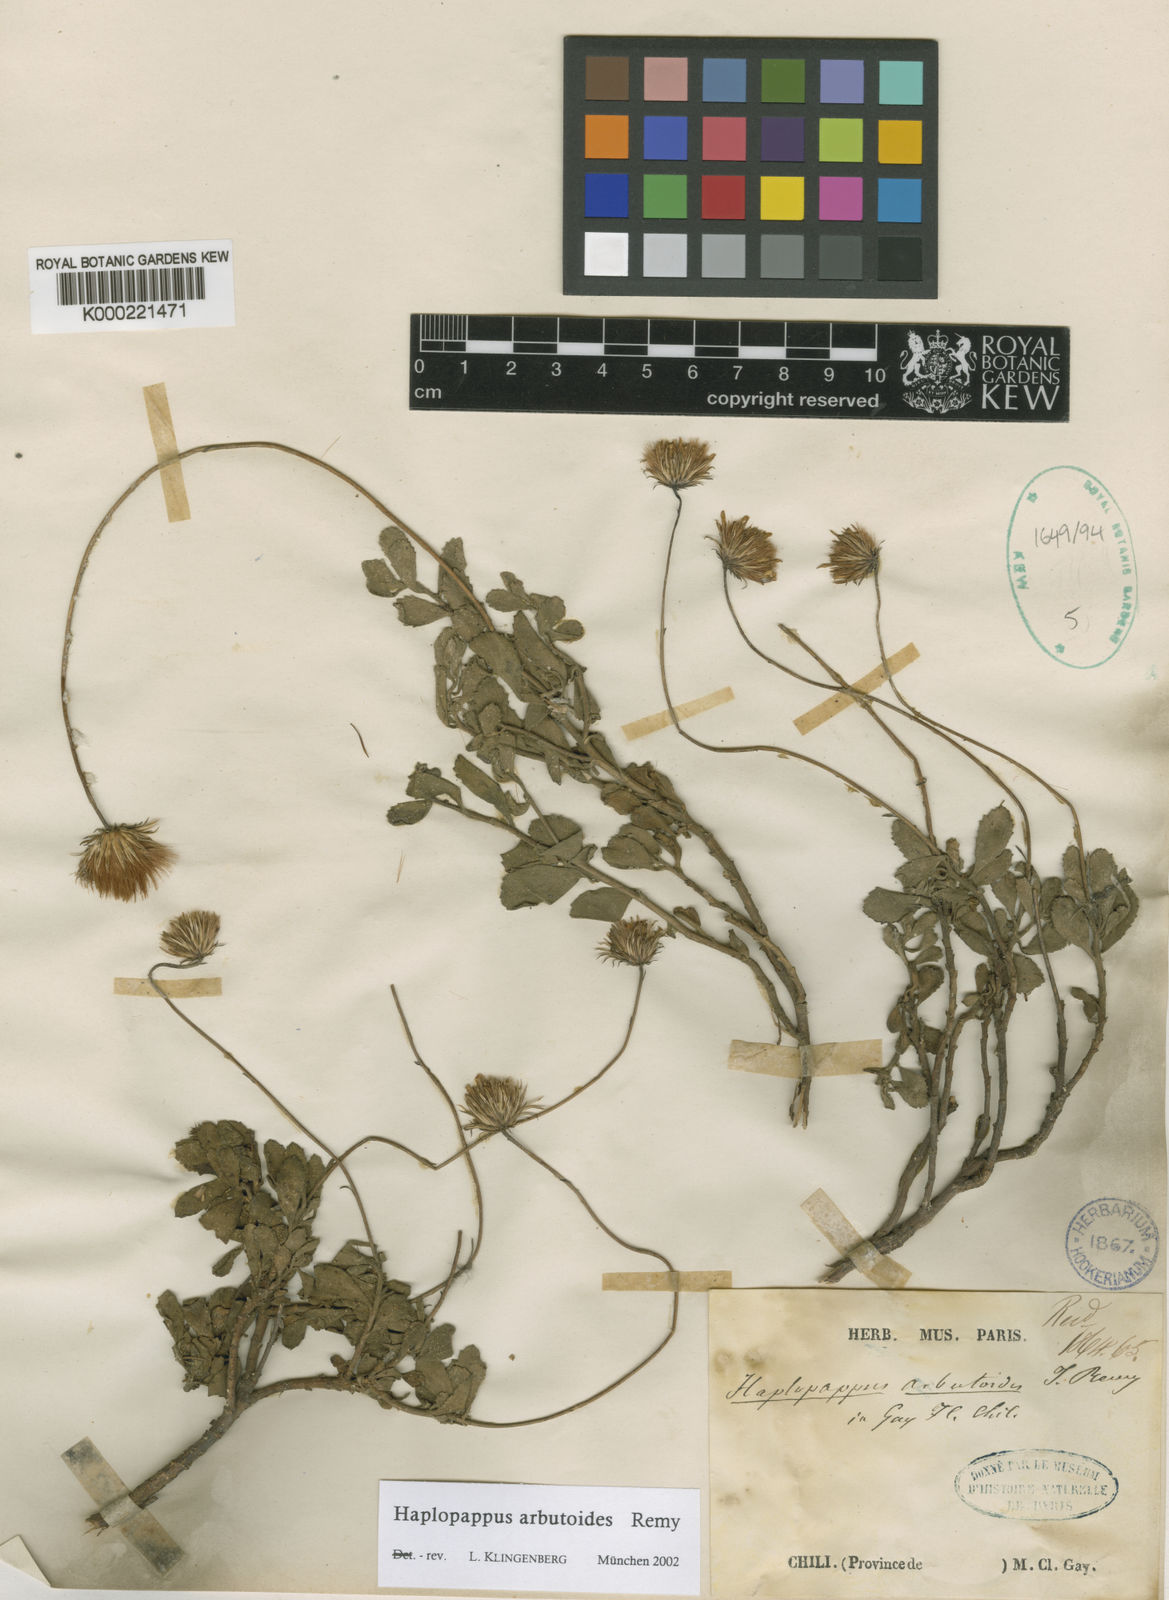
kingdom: Plantae
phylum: Tracheophyta
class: Magnoliopsida
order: Asterales
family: Asteraceae
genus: Haplopappus
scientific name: Haplopappus arbutoides
